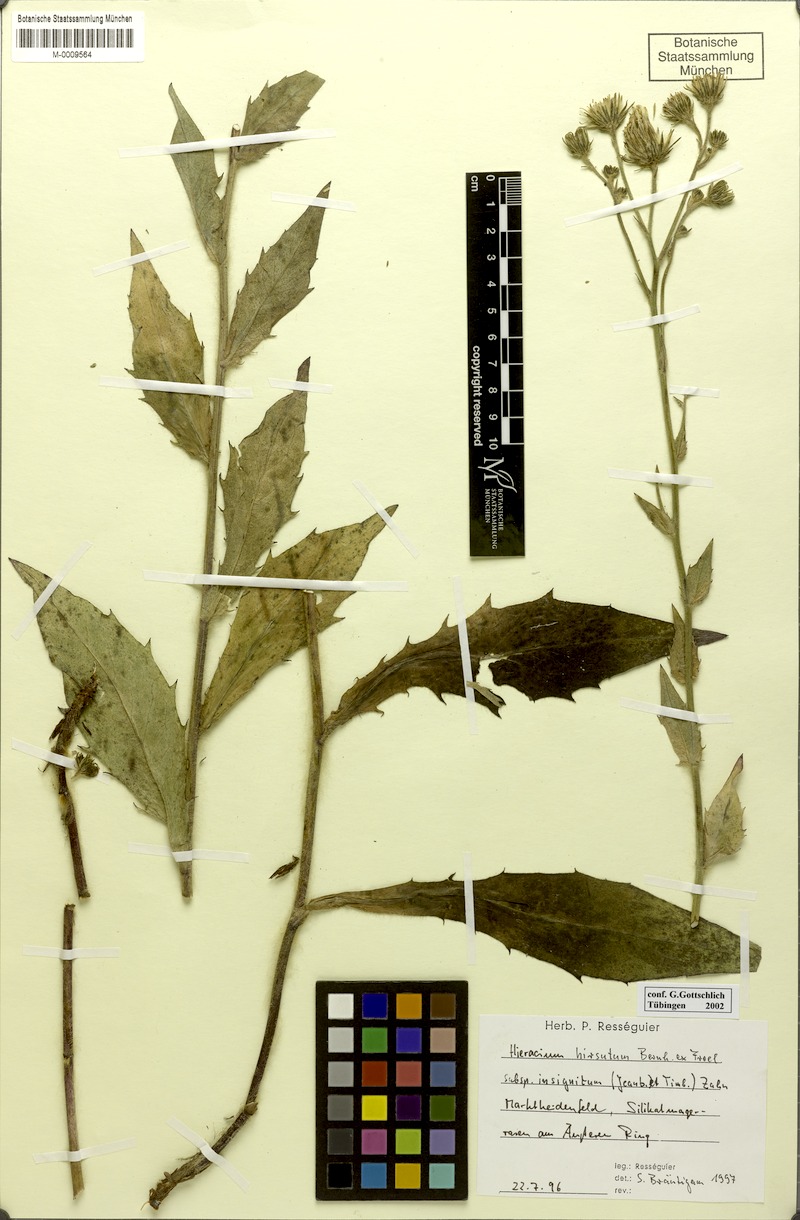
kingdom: Plantae
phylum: Tracheophyta
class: Magnoliopsida
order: Asterales
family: Asteraceae
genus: Hieracium
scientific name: Hieracium hirsutum
